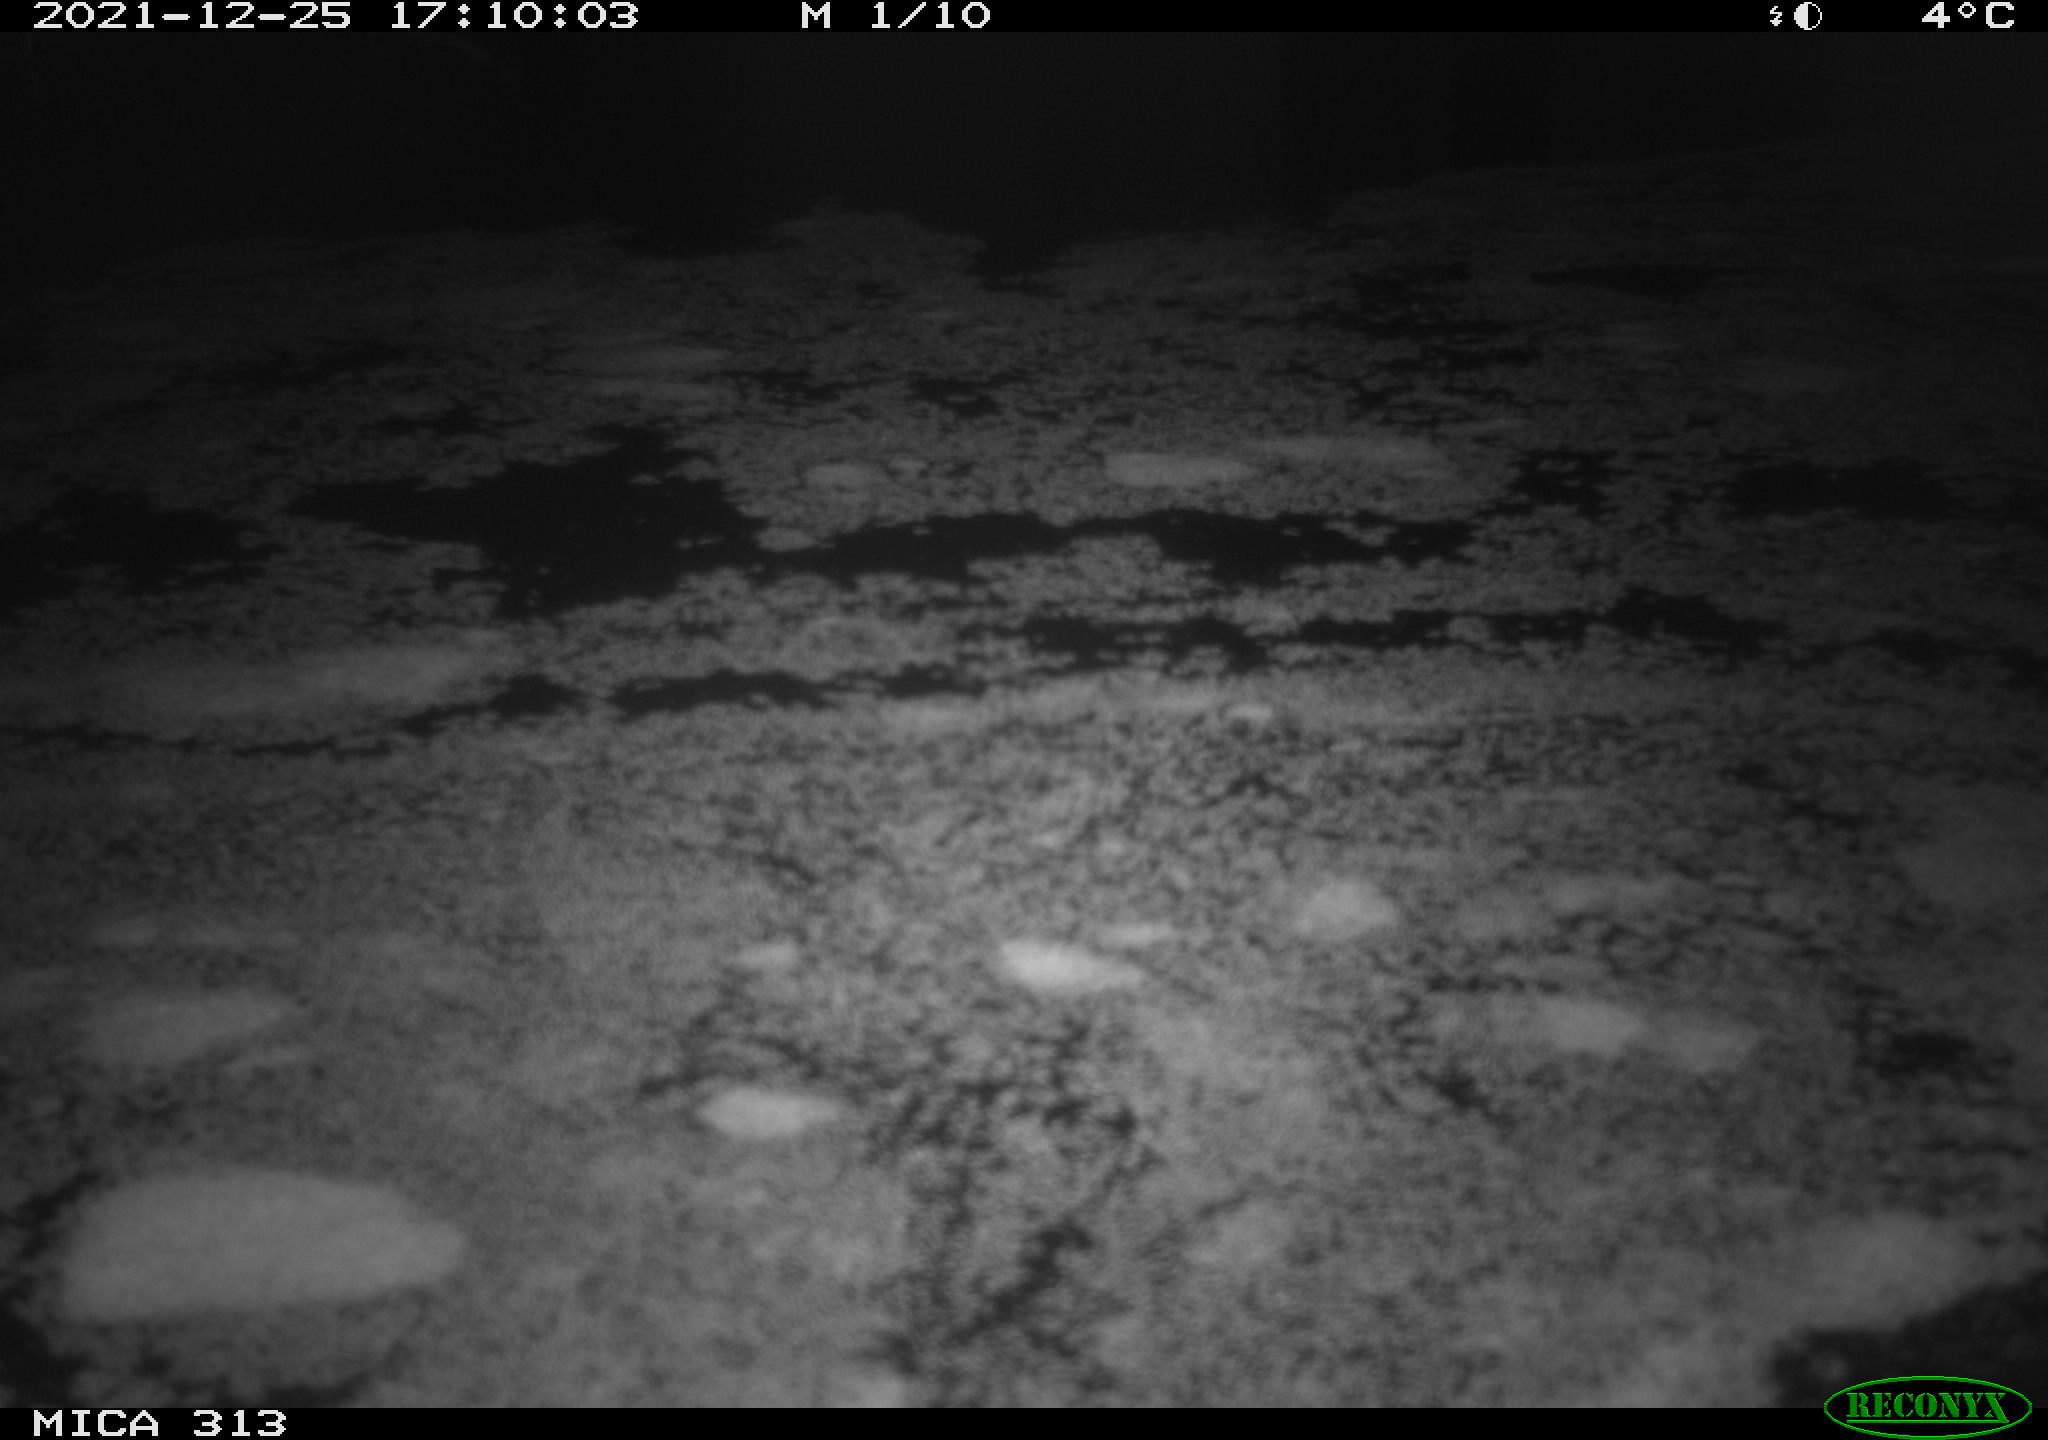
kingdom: Animalia
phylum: Chordata
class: Aves
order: Gruiformes
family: Rallidae
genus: Gallinula
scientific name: Gallinula chloropus
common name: Common moorhen
